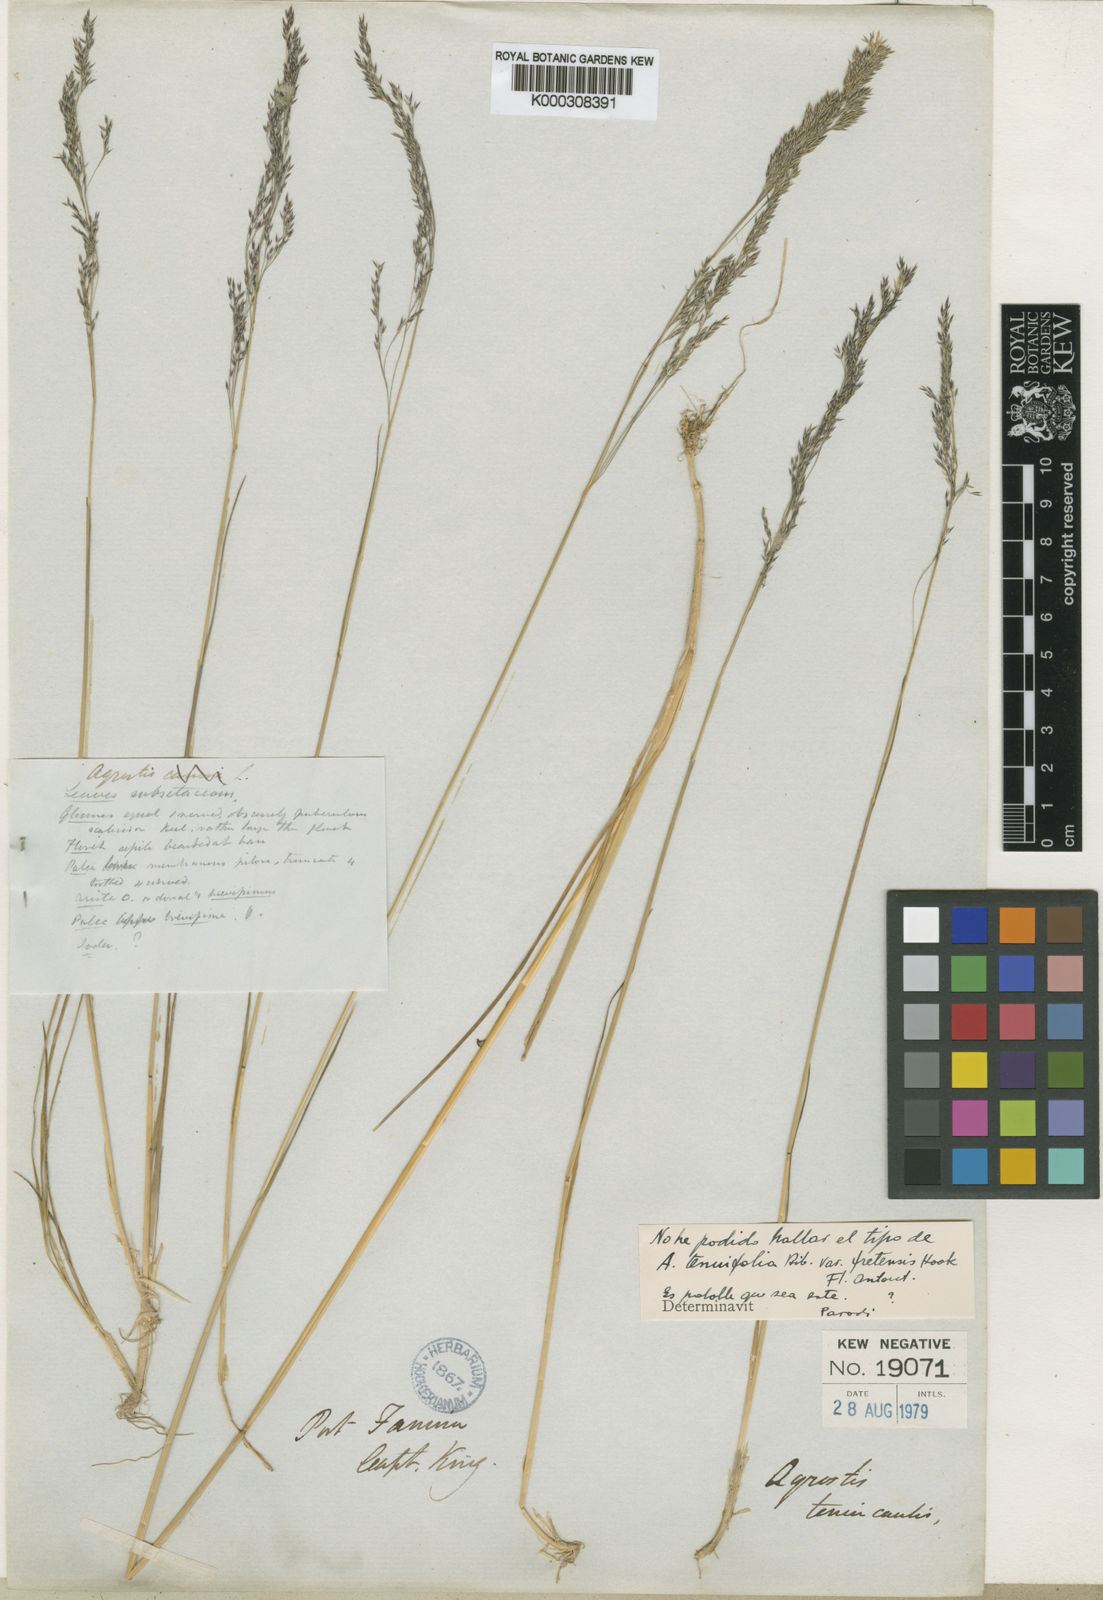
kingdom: Plantae
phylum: Tracheophyta
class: Liliopsida
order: Poales
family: Poaceae
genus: Agrostis
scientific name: Agrostis perennans
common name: Autumn bent
